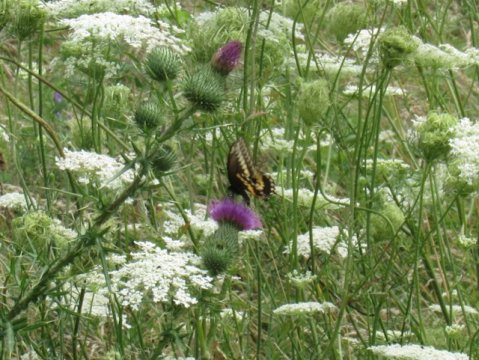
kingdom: Animalia
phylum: Arthropoda
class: Insecta
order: Lepidoptera
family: Papilionidae
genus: Papilio
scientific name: Papilio polyxenes
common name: Black Swallowtail
